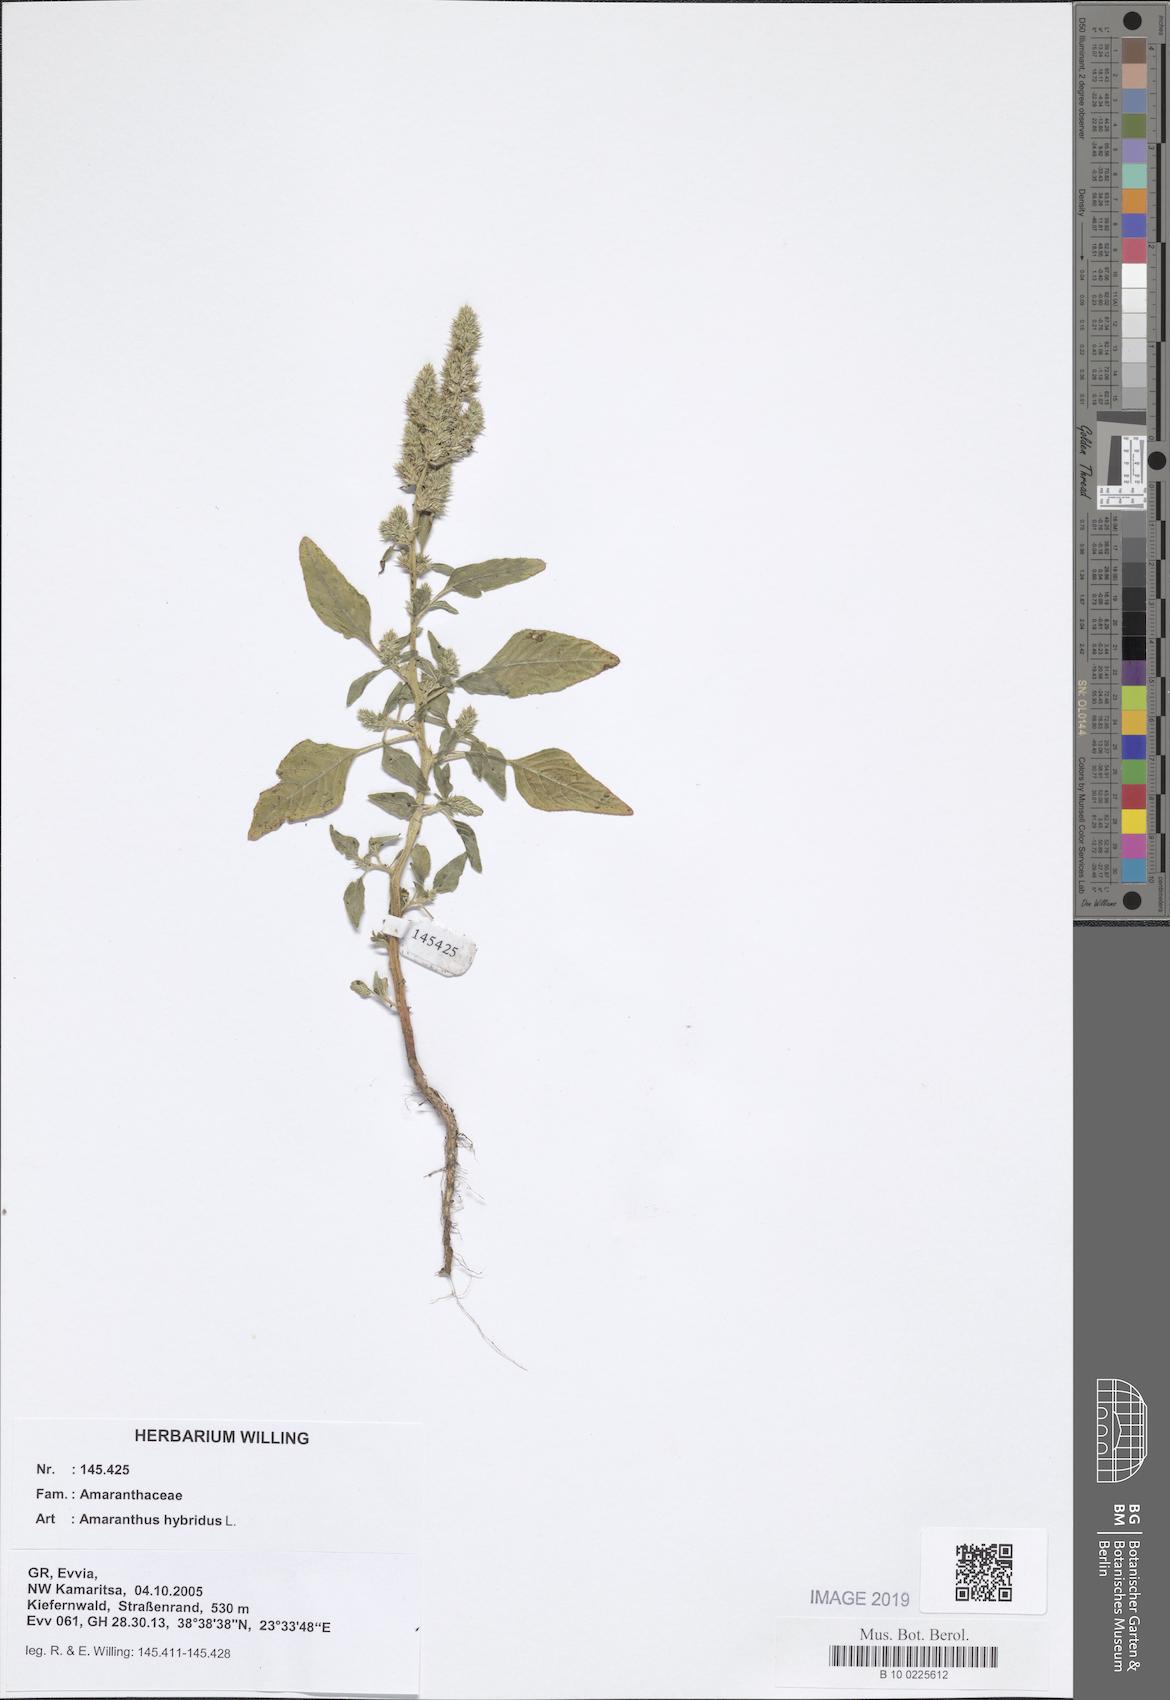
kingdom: Plantae
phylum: Tracheophyta
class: Magnoliopsida
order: Caryophyllales
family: Amaranthaceae
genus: Amaranthus
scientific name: Amaranthus hybridus
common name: Green amaranth
